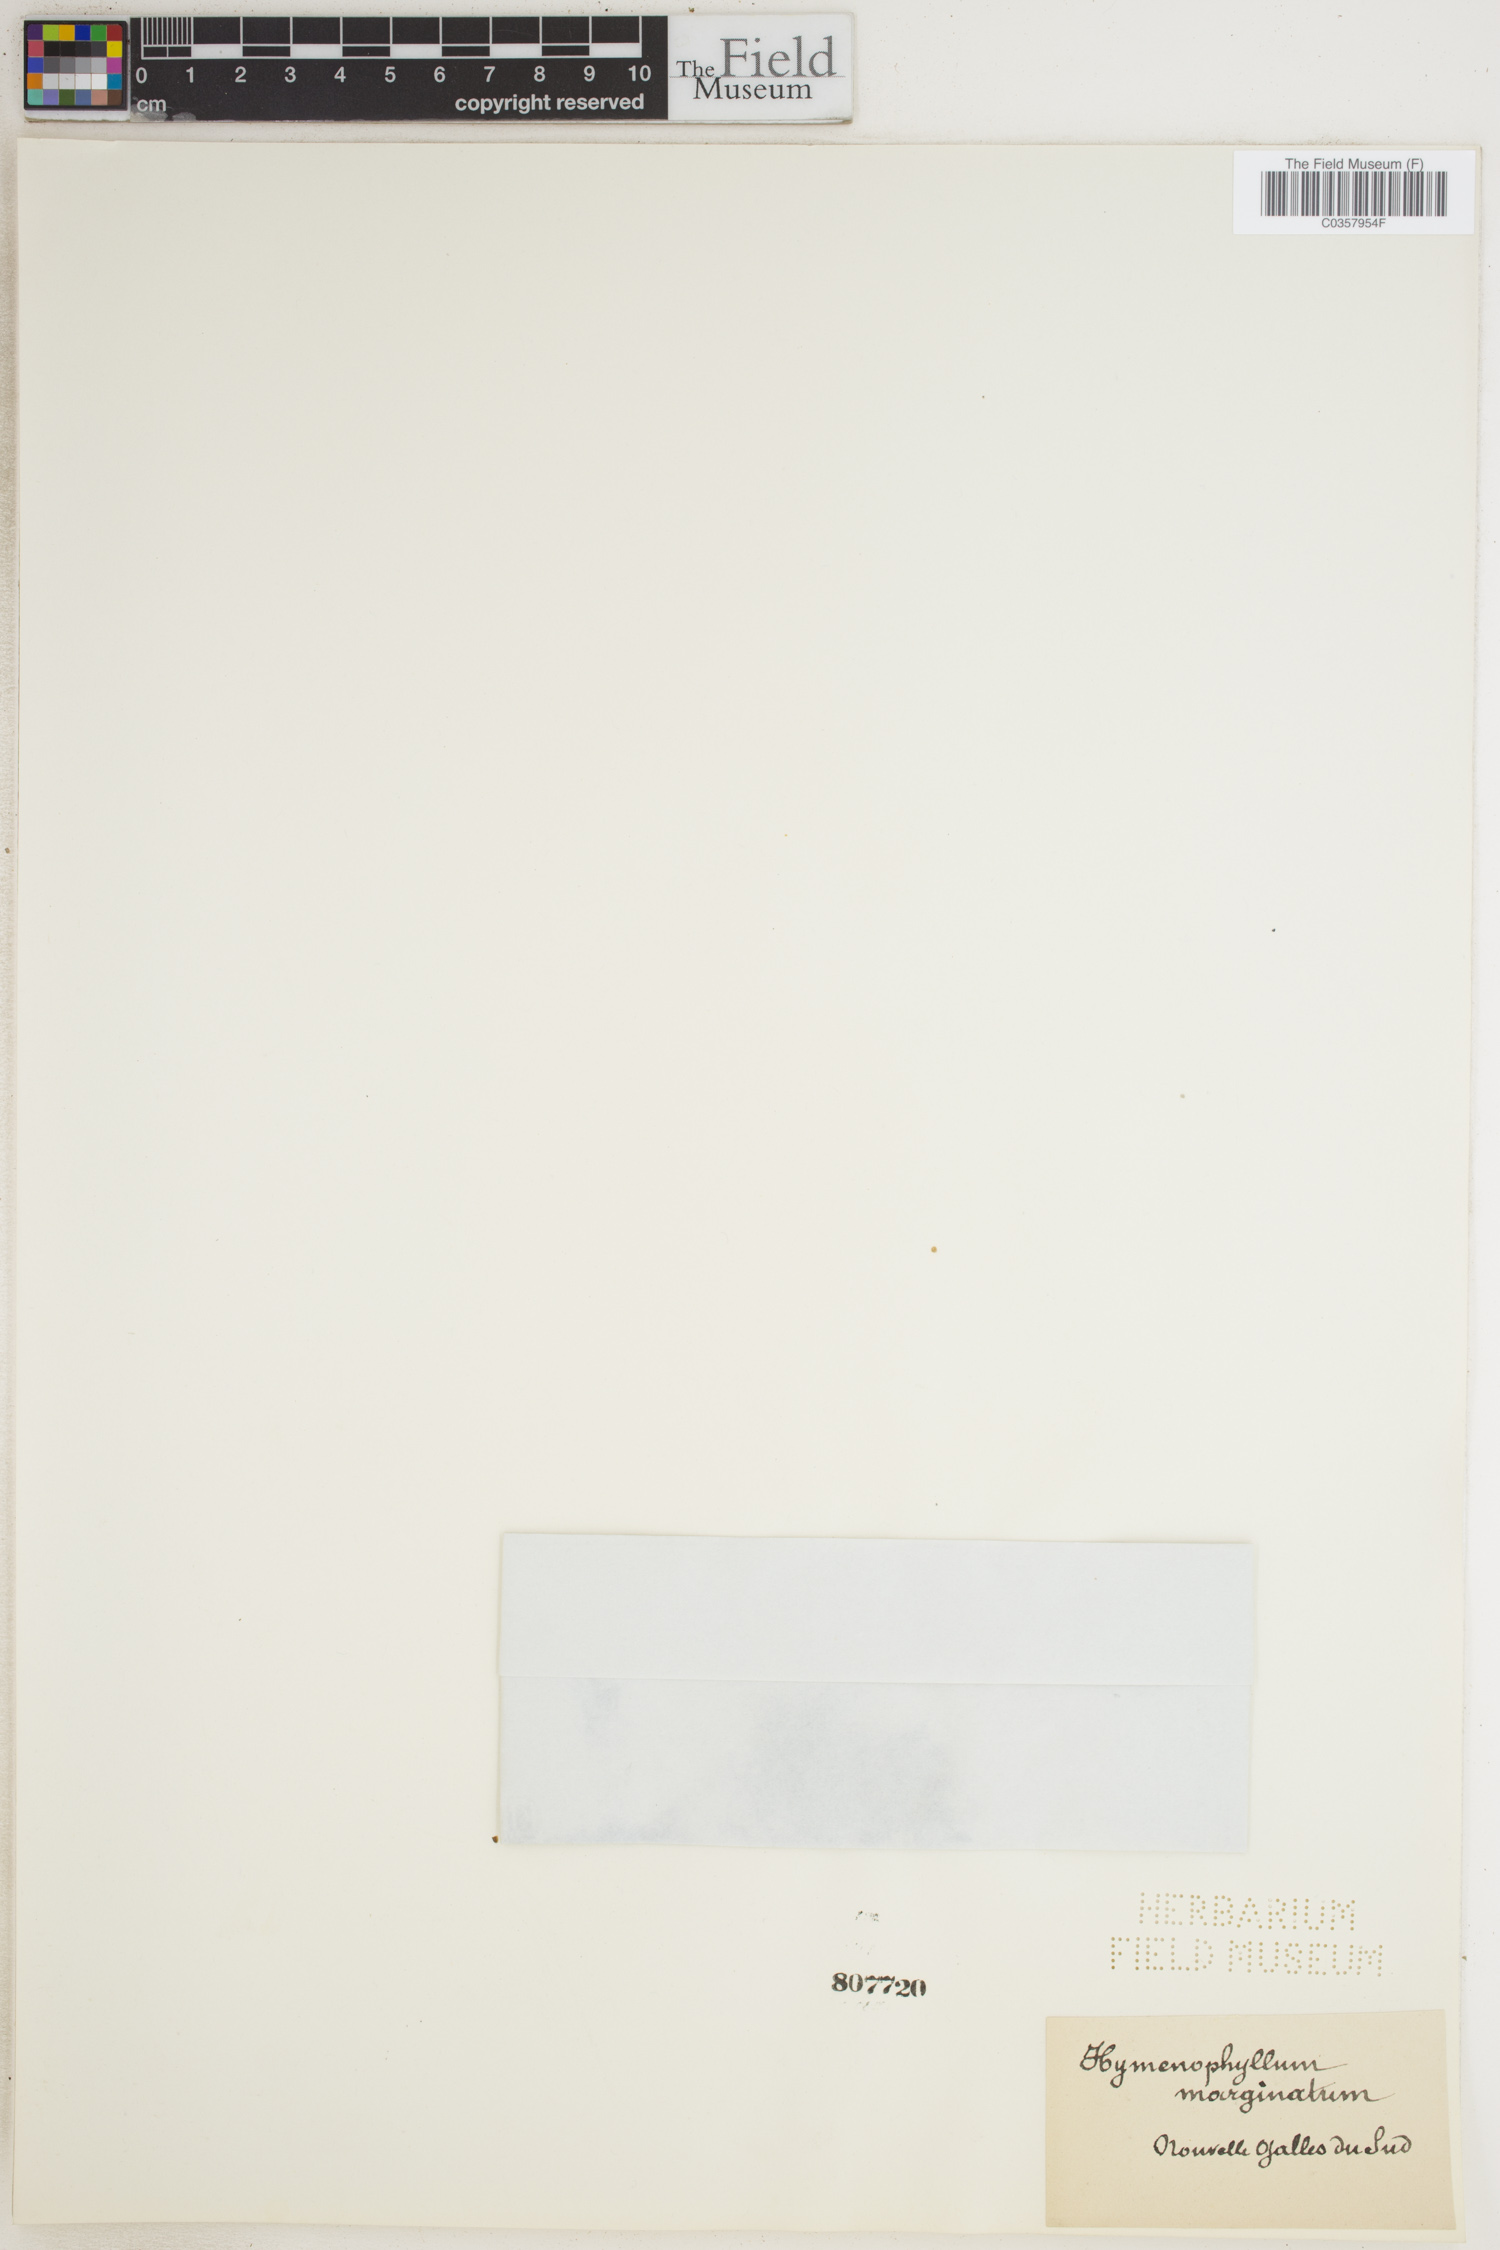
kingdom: Plantae
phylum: Tracheophyta
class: Polypodiopsida
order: Hymenophyllales
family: Hymenophyllaceae
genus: Hymenophyllum
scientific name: Hymenophyllum marginatum
